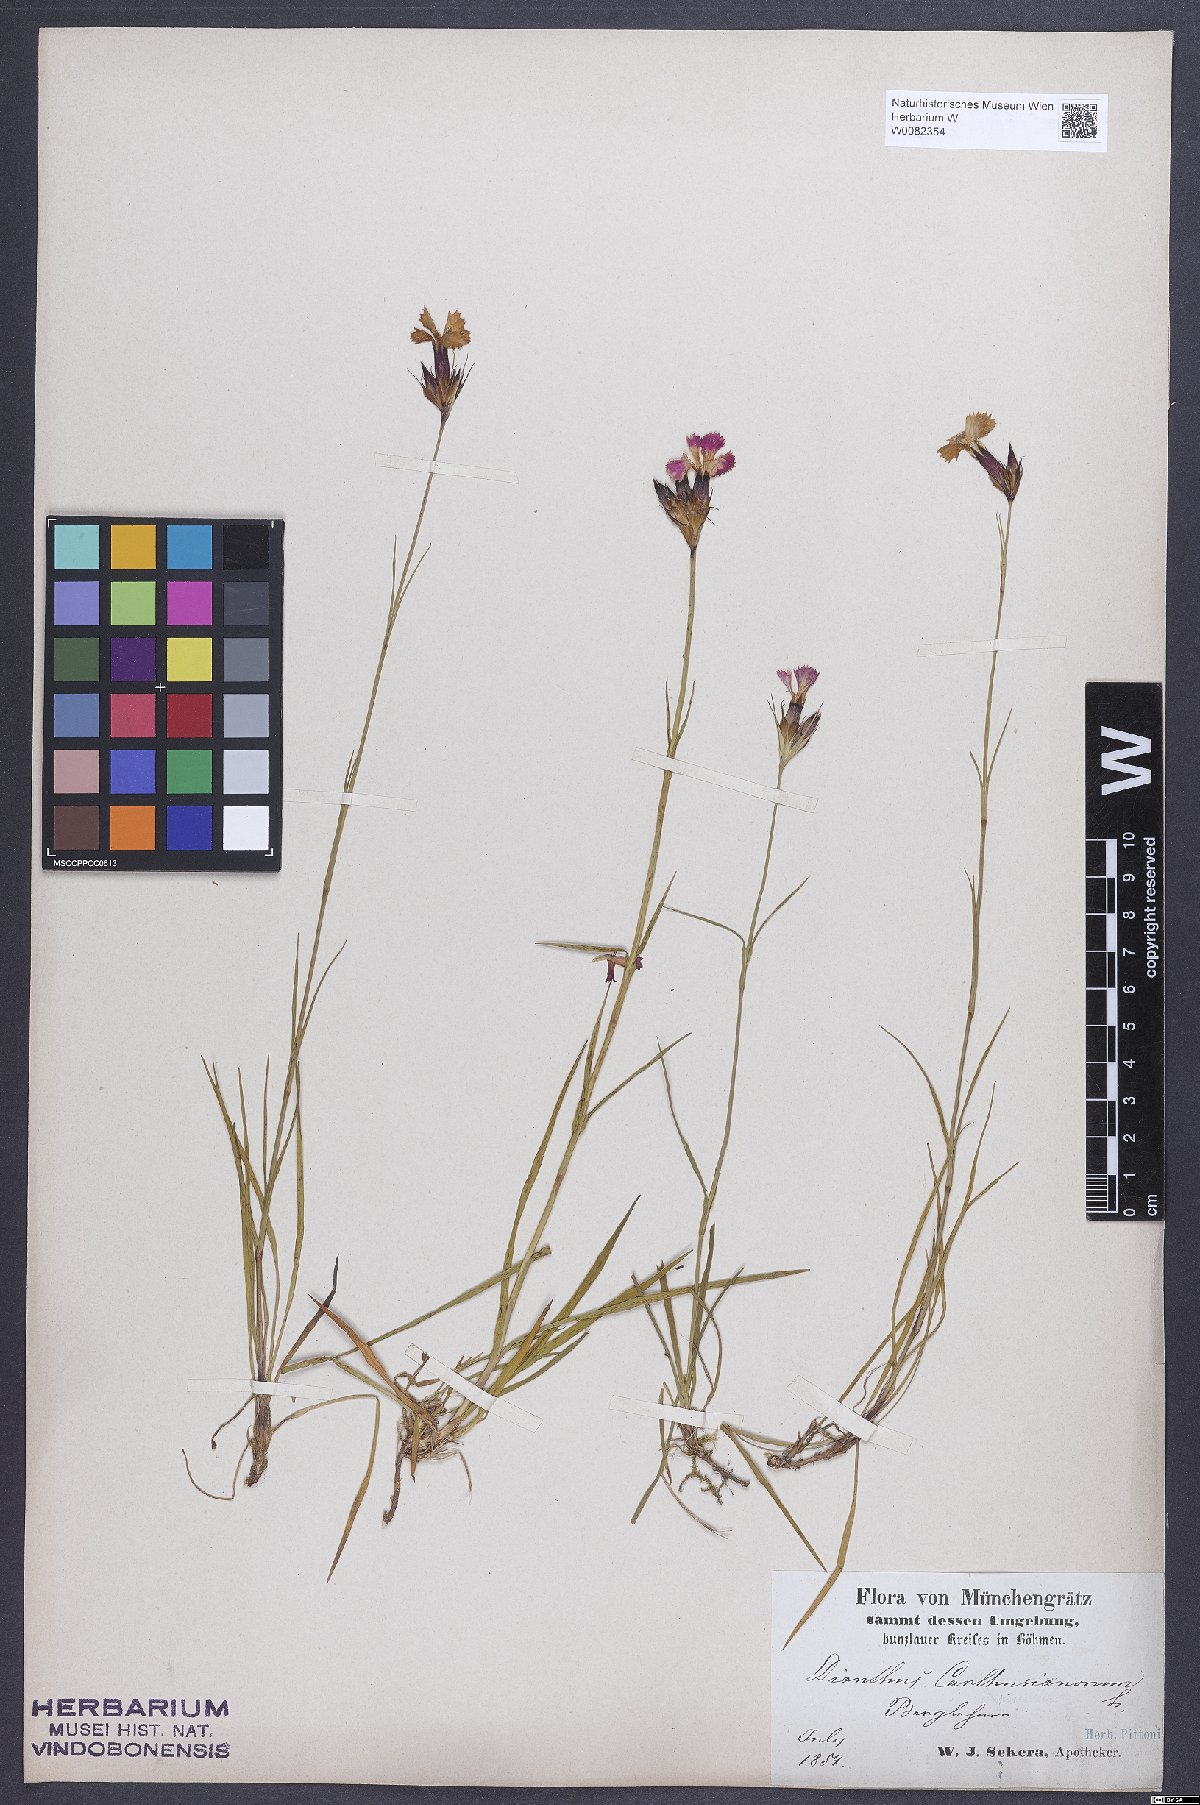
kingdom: Plantae
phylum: Tracheophyta
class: Magnoliopsida
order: Caryophyllales
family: Caryophyllaceae
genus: Dianthus
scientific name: Dianthus carthusianorum
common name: Carthusian pink
